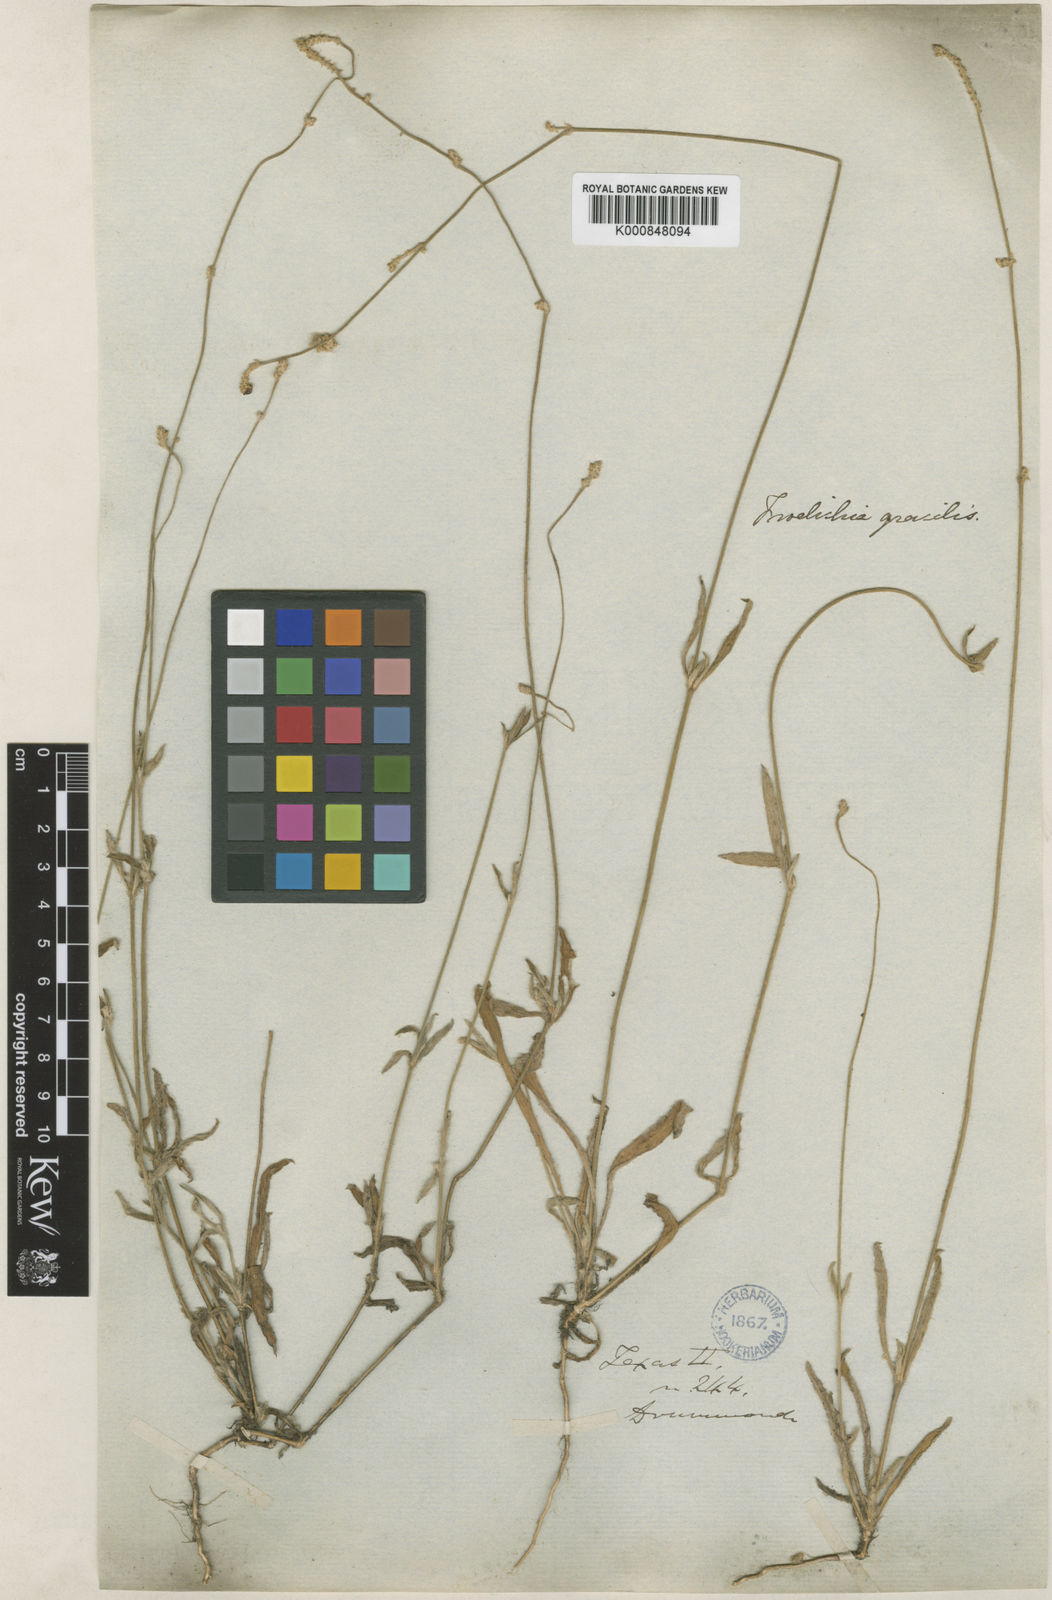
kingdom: Plantae
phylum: Tracheophyta
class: Magnoliopsida
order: Caryophyllales
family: Amaranthaceae
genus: Froelichia
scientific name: Froelichia gracilis
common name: Slender cottonweed
